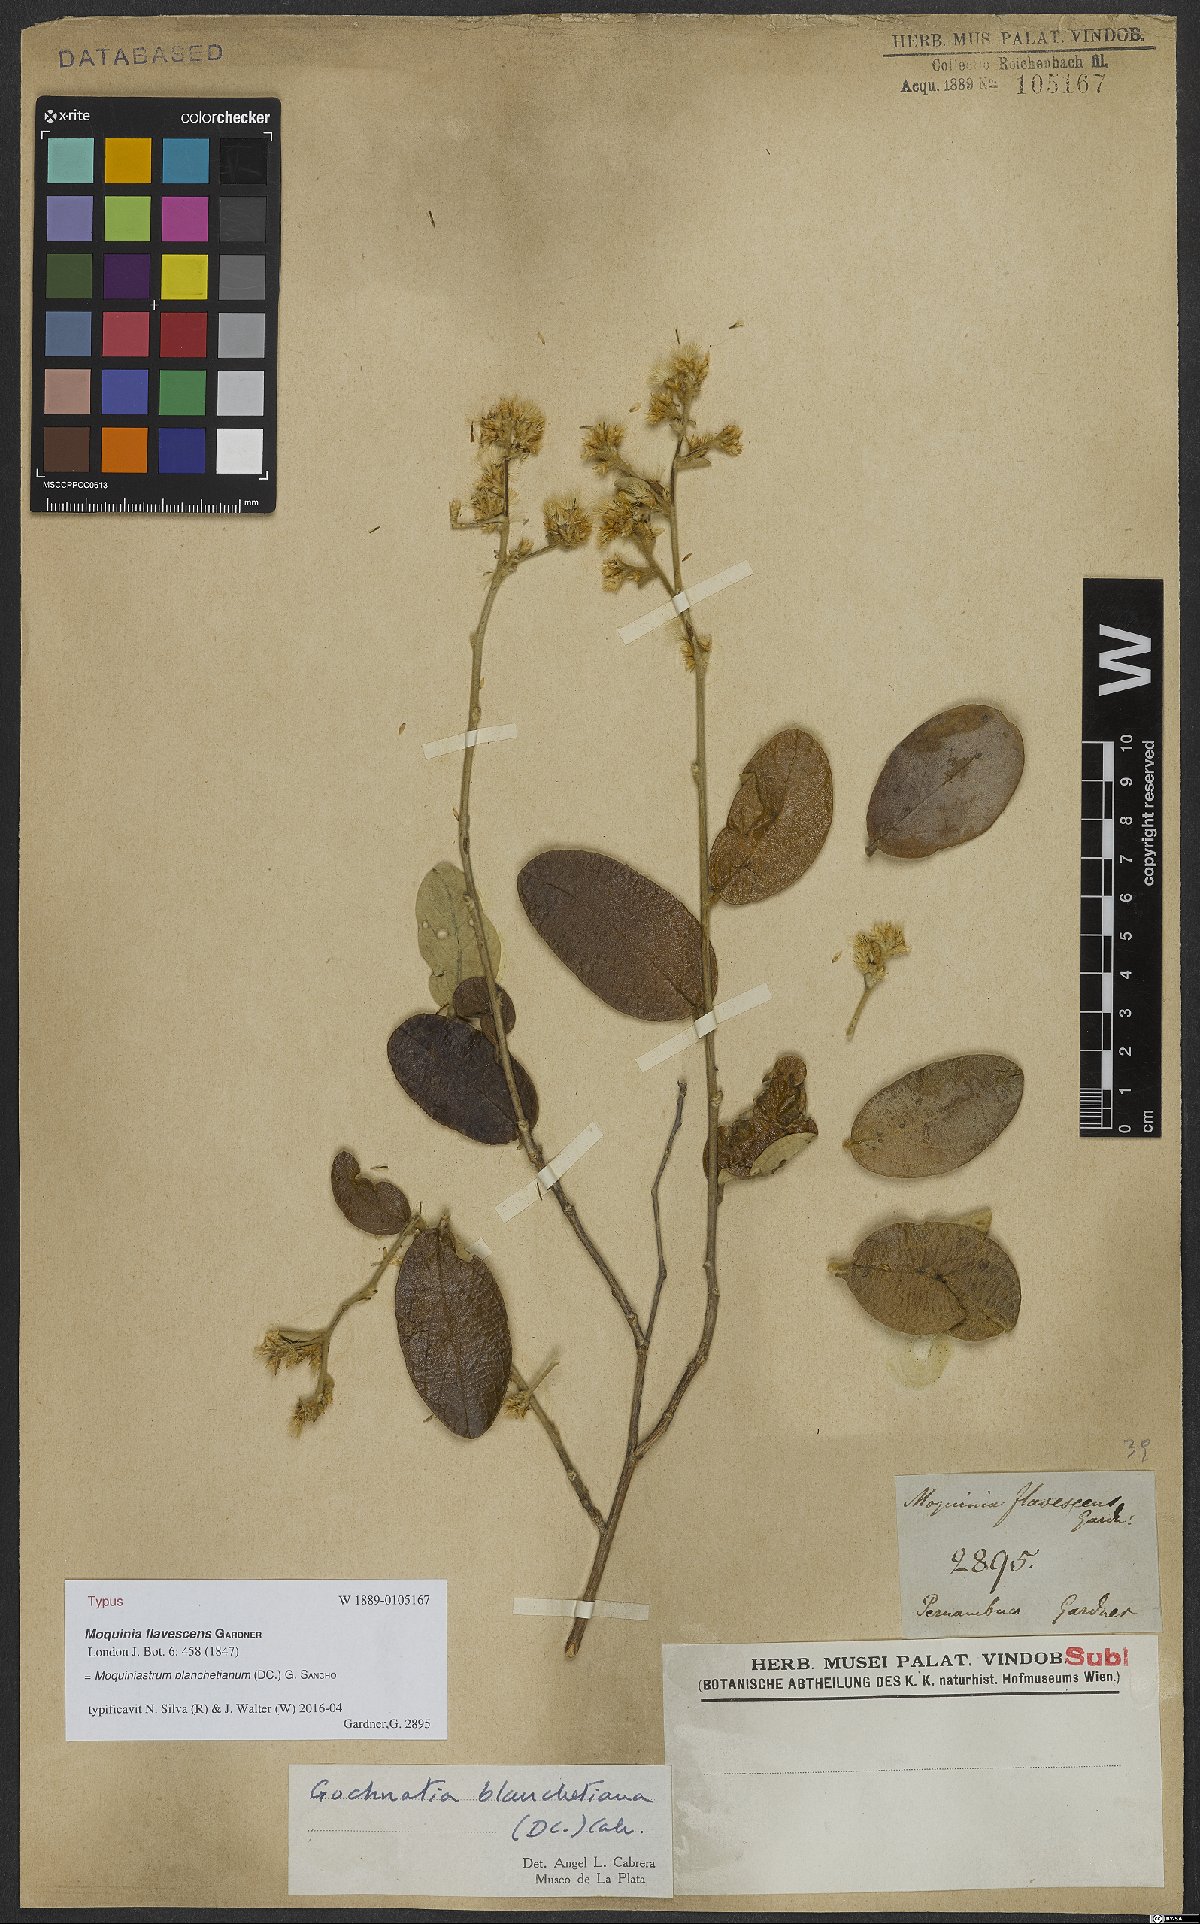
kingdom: Plantae
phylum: Tracheophyta
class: Magnoliopsida
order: Asterales
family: Asteraceae
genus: Moquiniastrum
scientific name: Moquiniastrum blanchetianum
